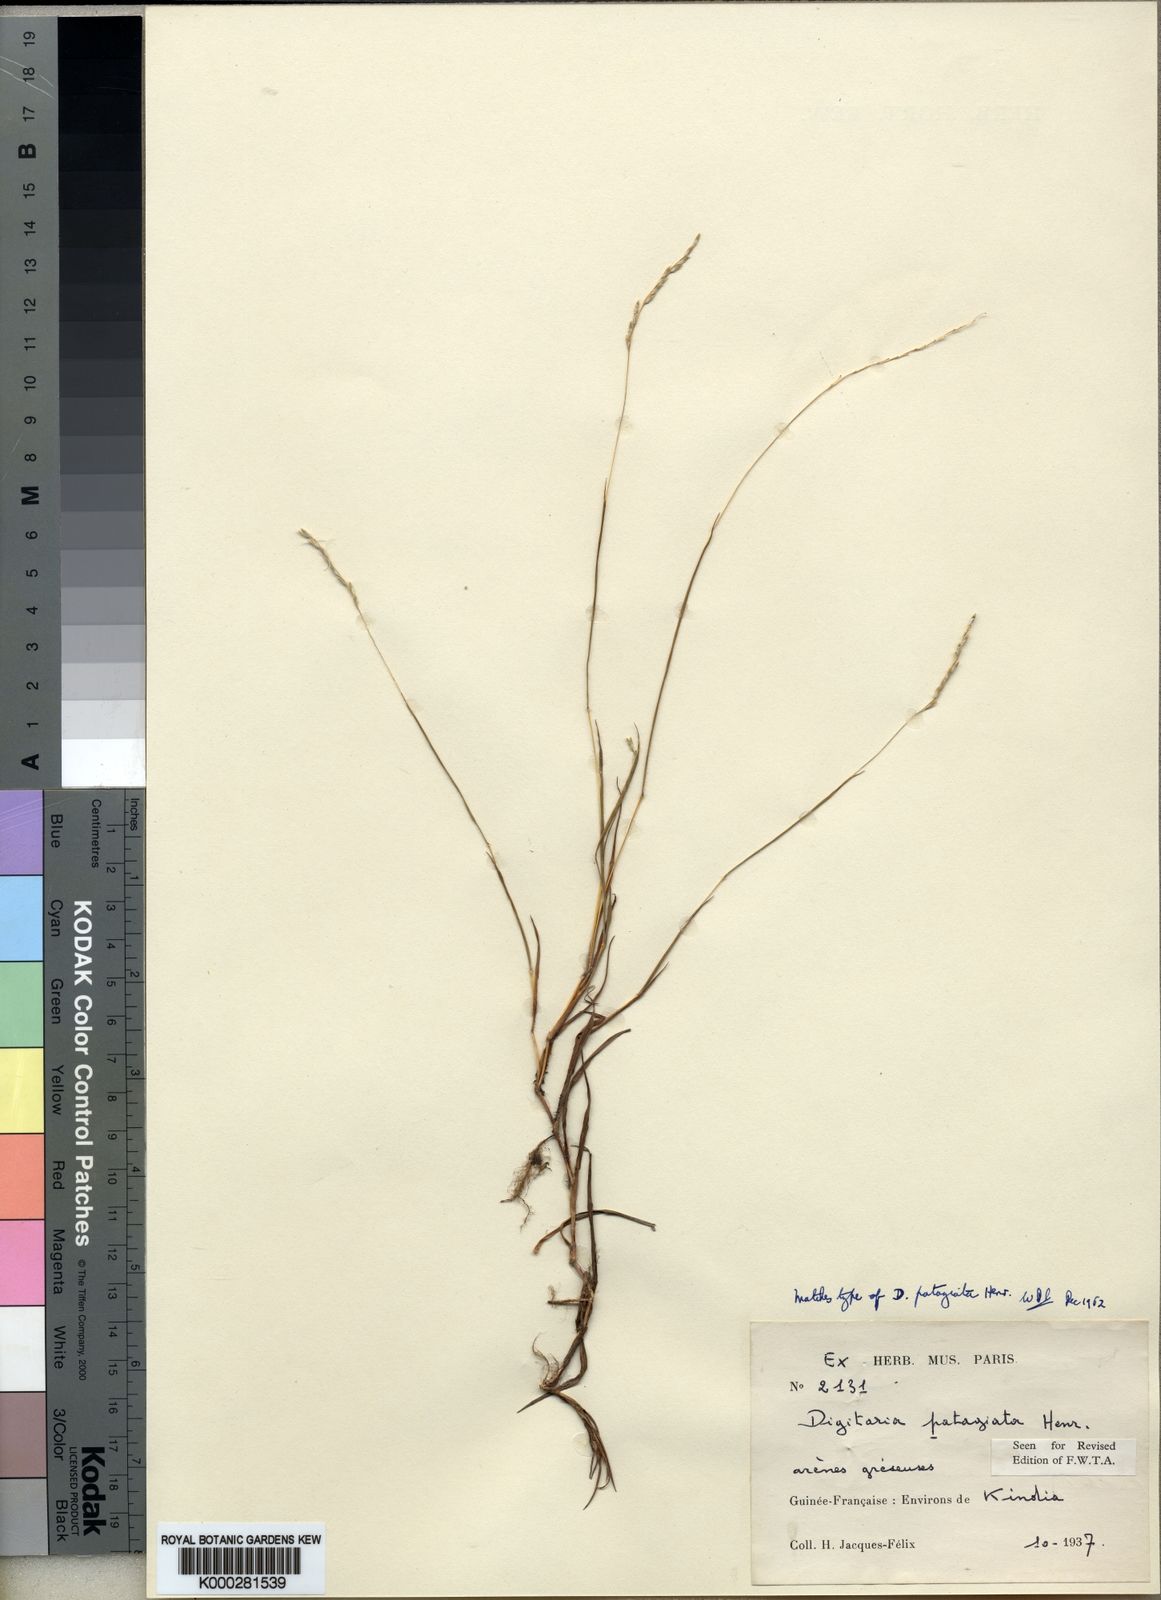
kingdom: Plantae
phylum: Tracheophyta
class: Liliopsida
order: Poales
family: Poaceae
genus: Digitaria
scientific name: Digitaria patagiata
